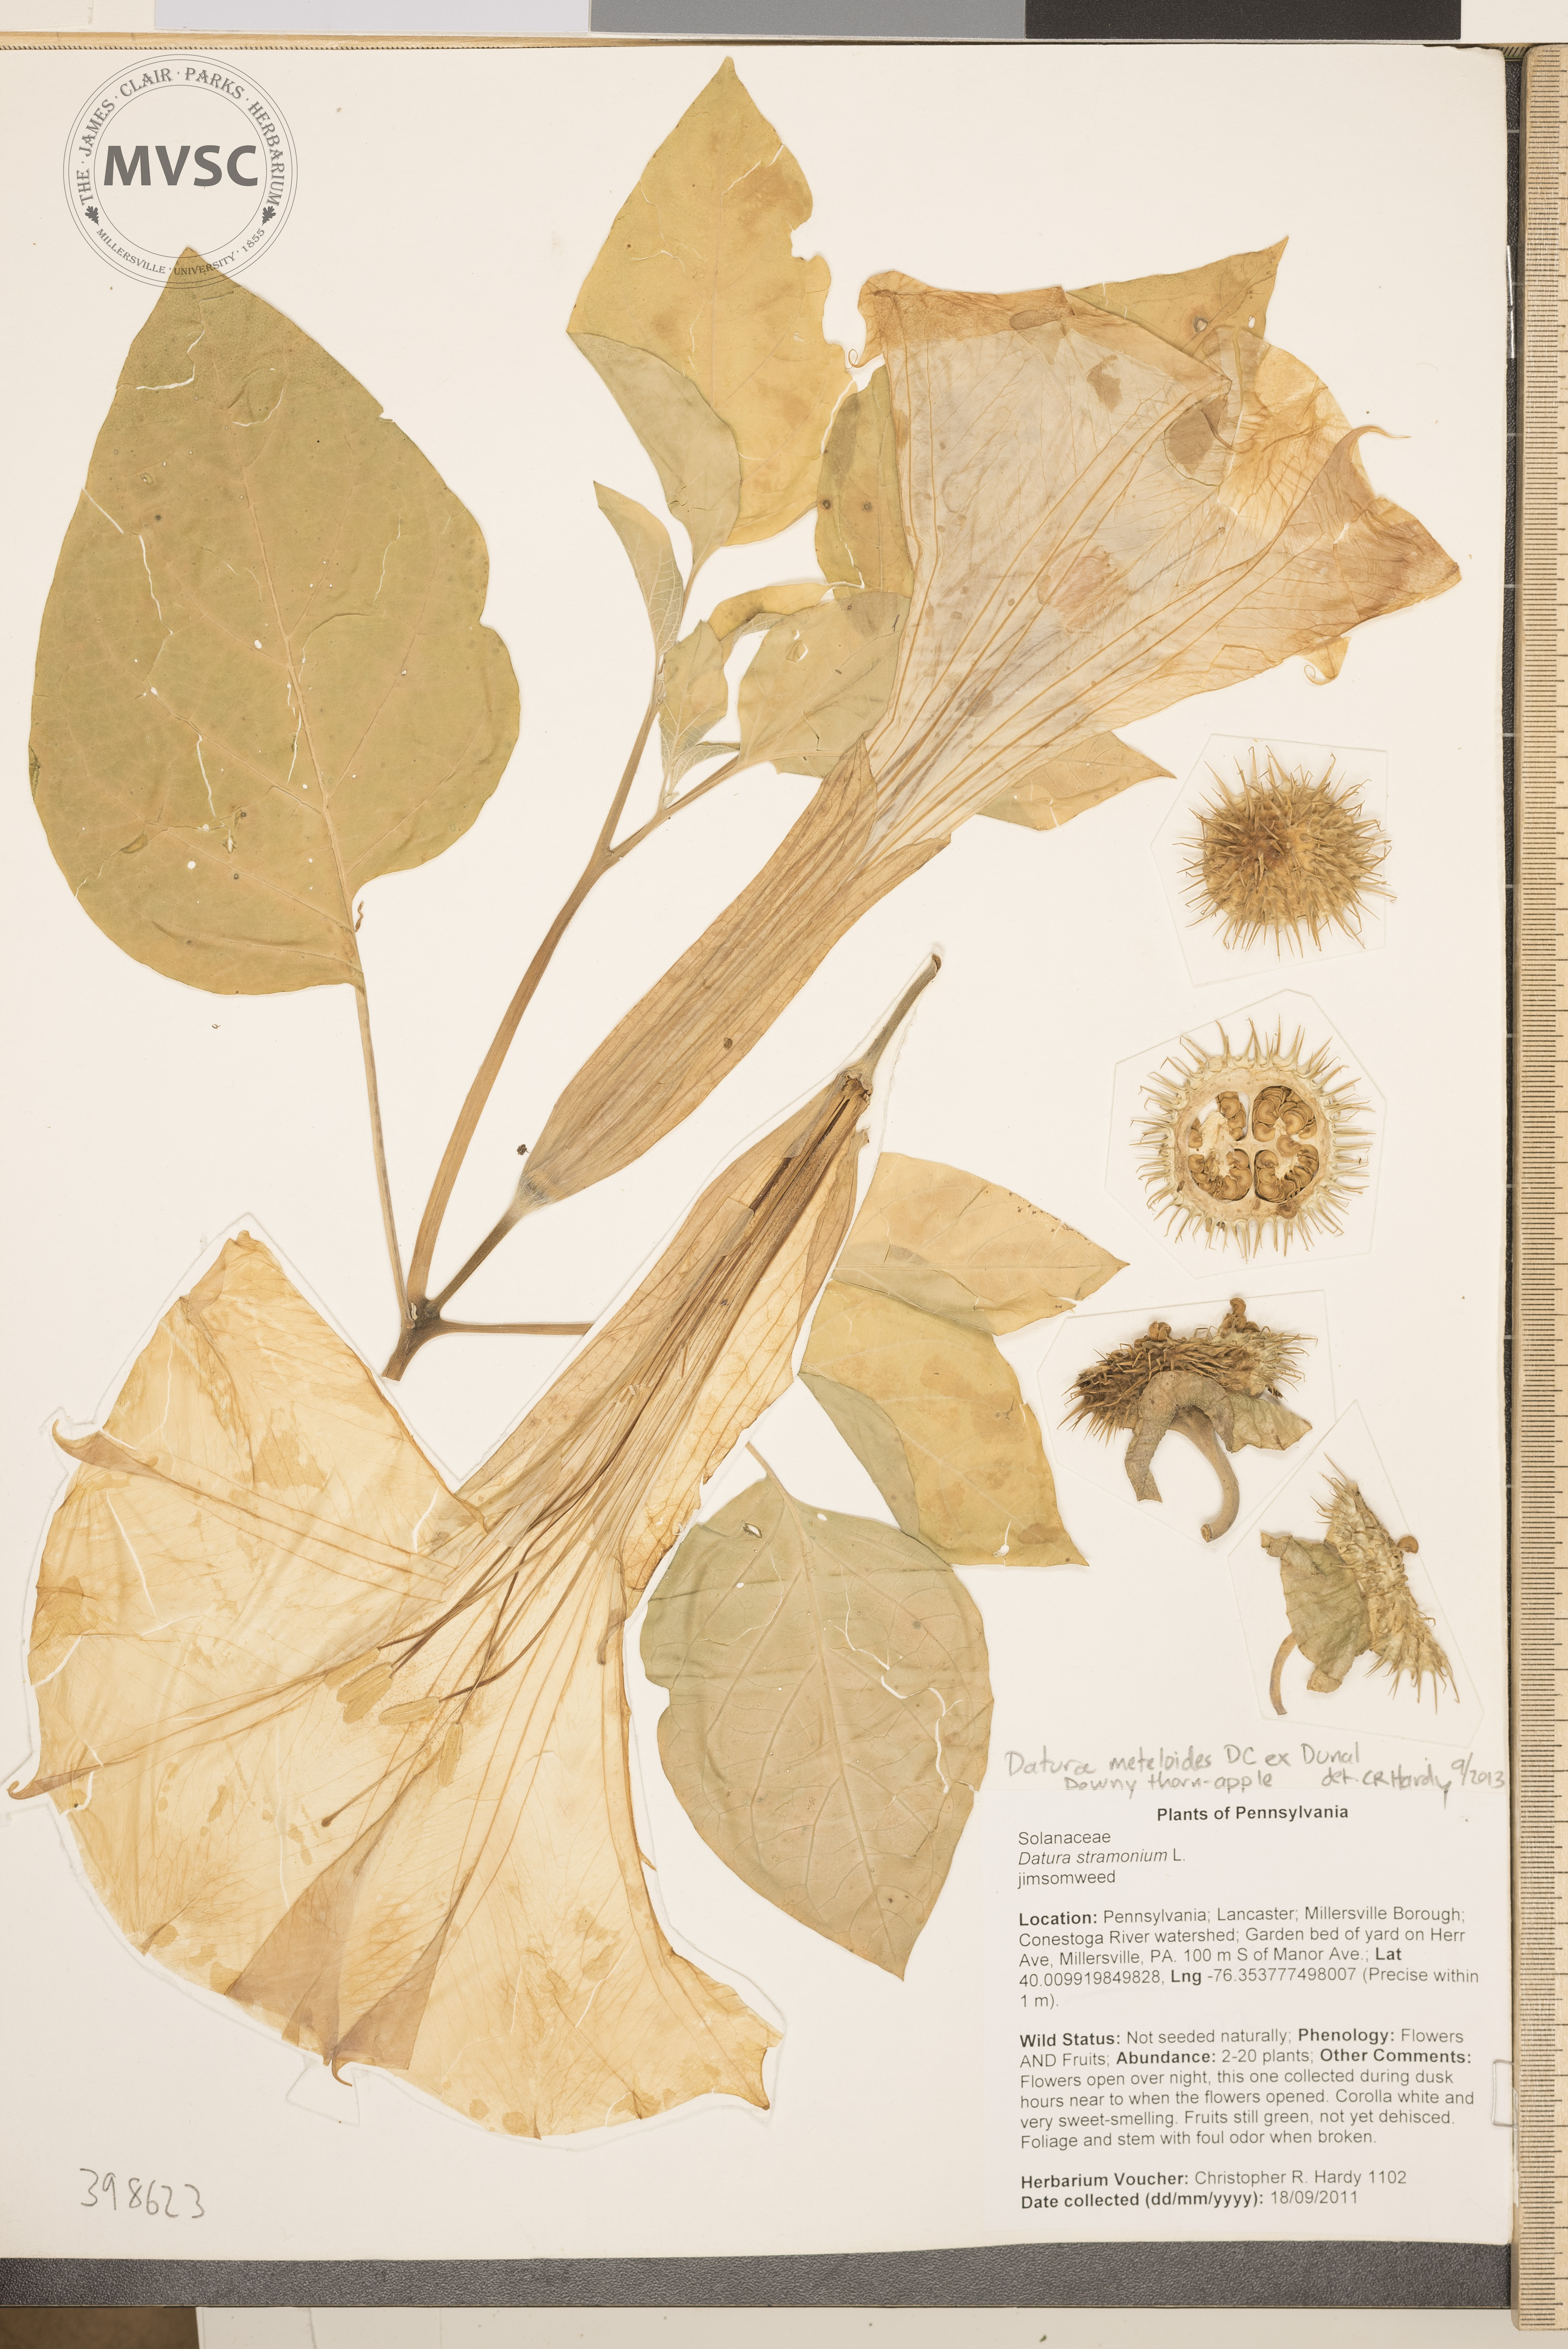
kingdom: Plantae
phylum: Tracheophyta
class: Magnoliopsida
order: Solanales
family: Solanaceae
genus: Datura
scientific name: Datura innoxia
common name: Downy thorn-apple
